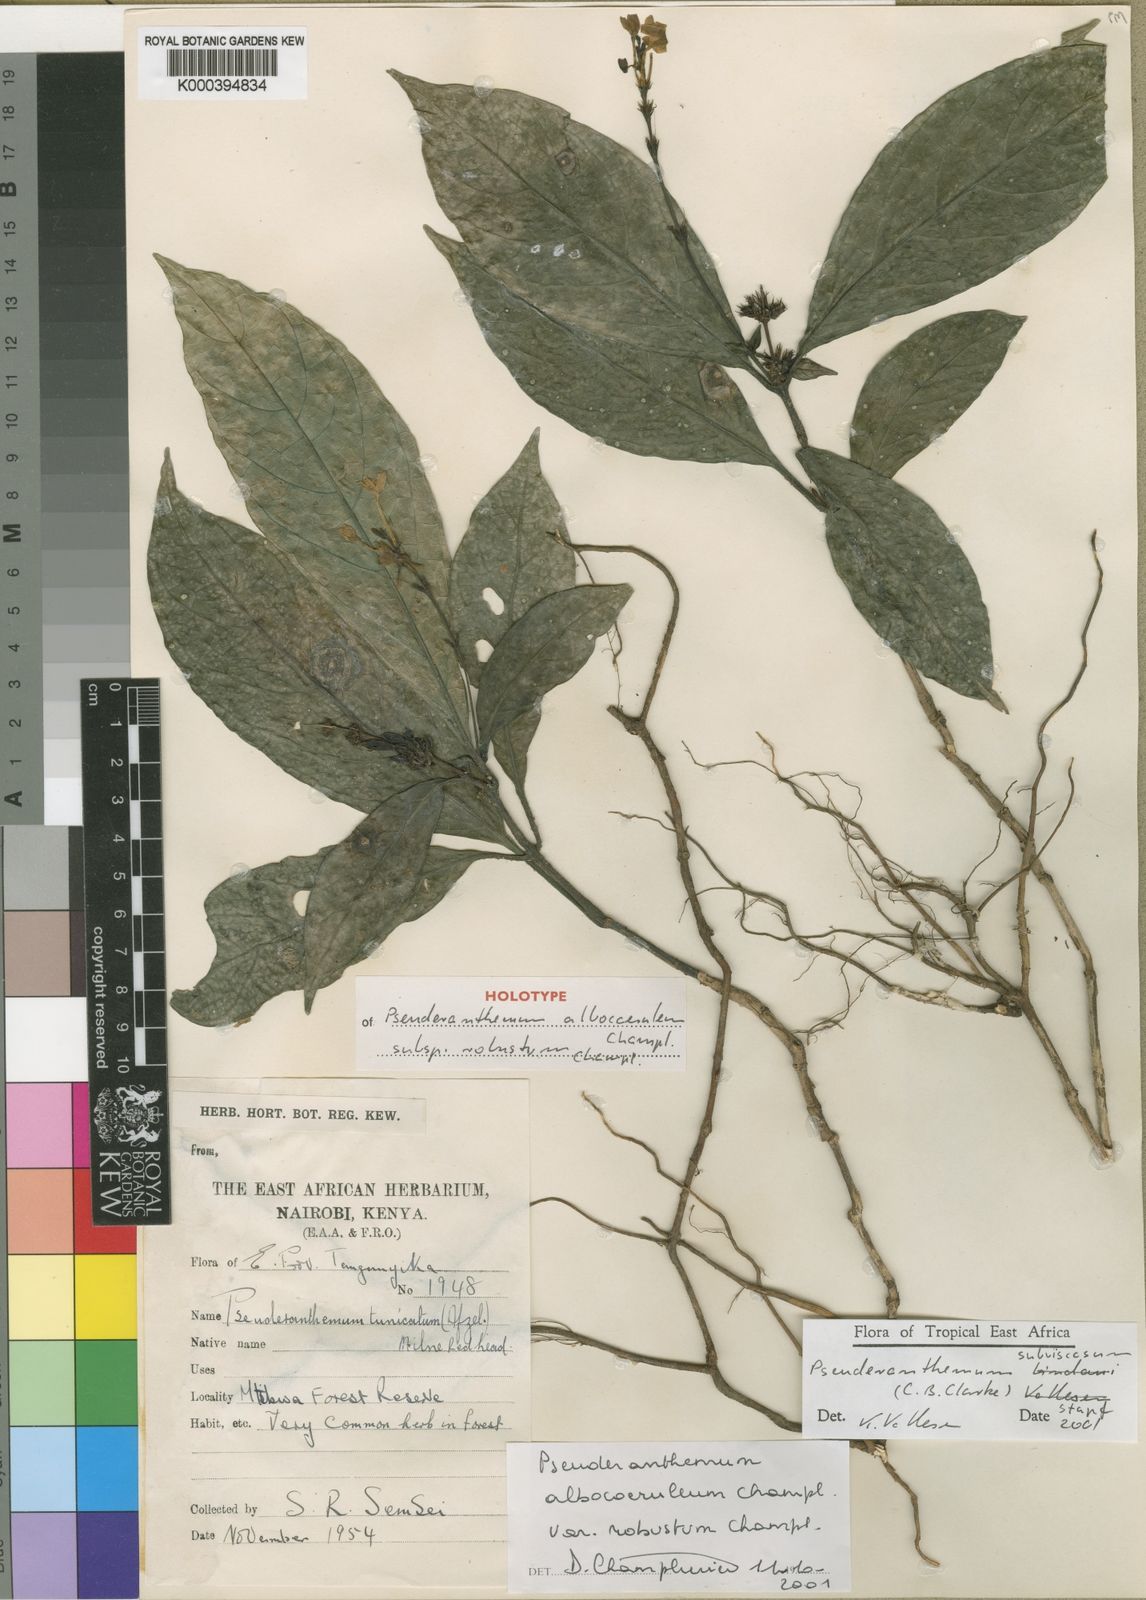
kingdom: Plantae
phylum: Tracheophyta
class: Magnoliopsida
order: Lamiales
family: Acanthaceae
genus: Pseuderanthemum
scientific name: Pseuderanthemum subviscosum
